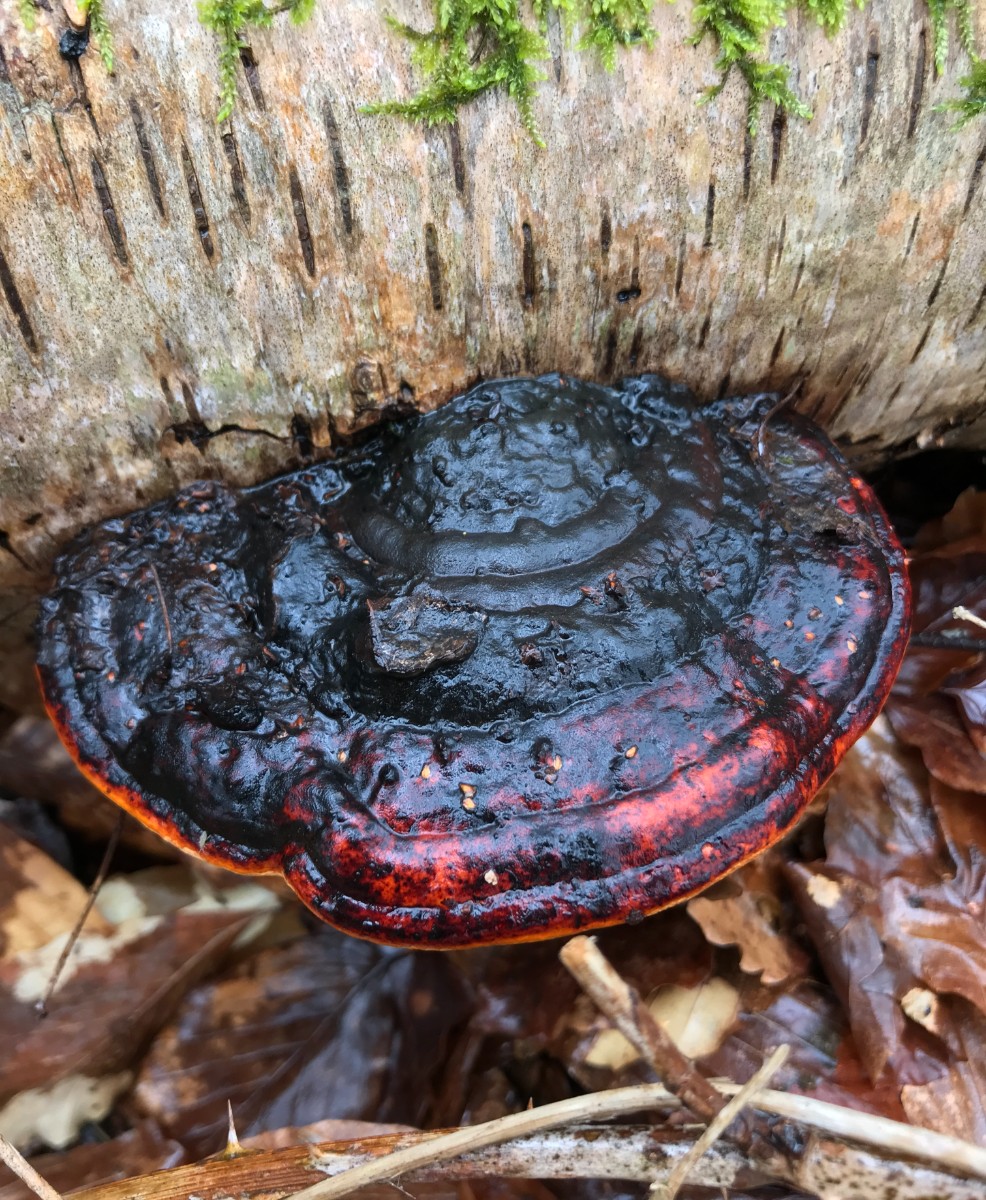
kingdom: Fungi
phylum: Basidiomycota
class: Agaricomycetes
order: Polyporales
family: Fomitopsidaceae
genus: Fomitopsis
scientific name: Fomitopsis pinicola
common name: randbæltet hovporesvamp
